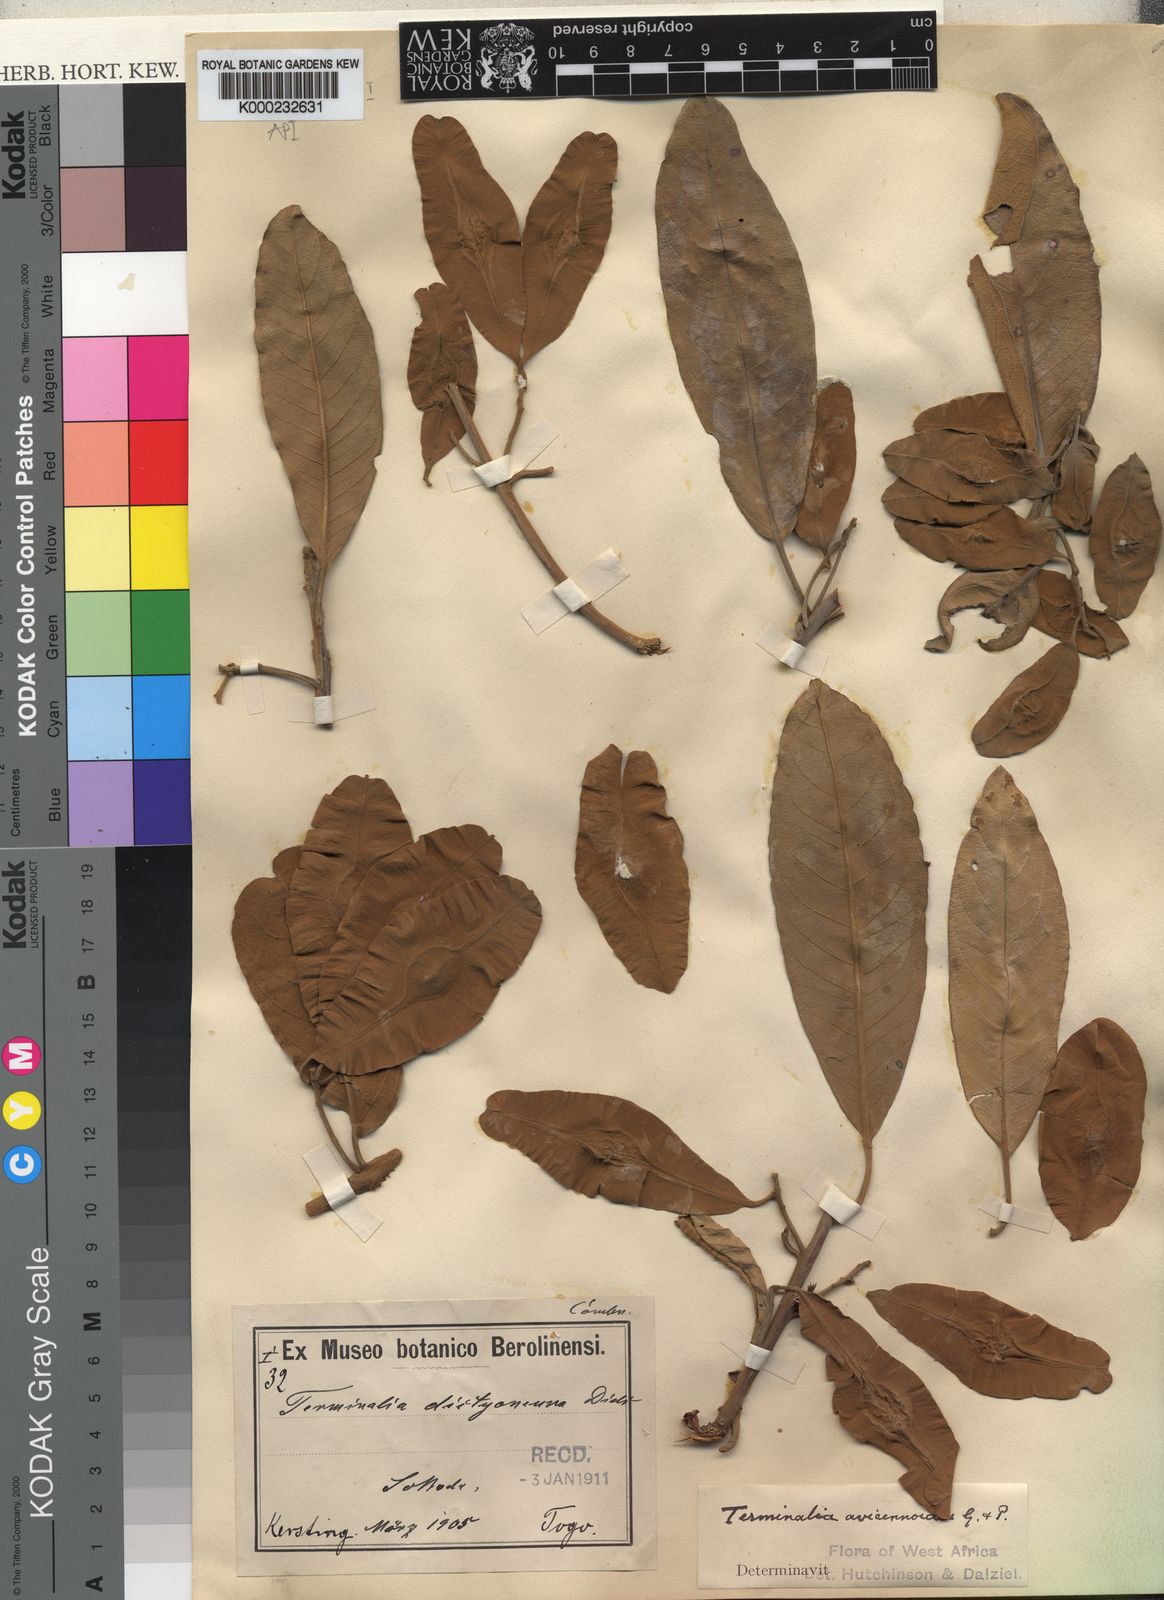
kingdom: Plantae
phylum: Tracheophyta
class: Magnoliopsida
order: Myrtales
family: Combretaceae
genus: Terminalia
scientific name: Terminalia
